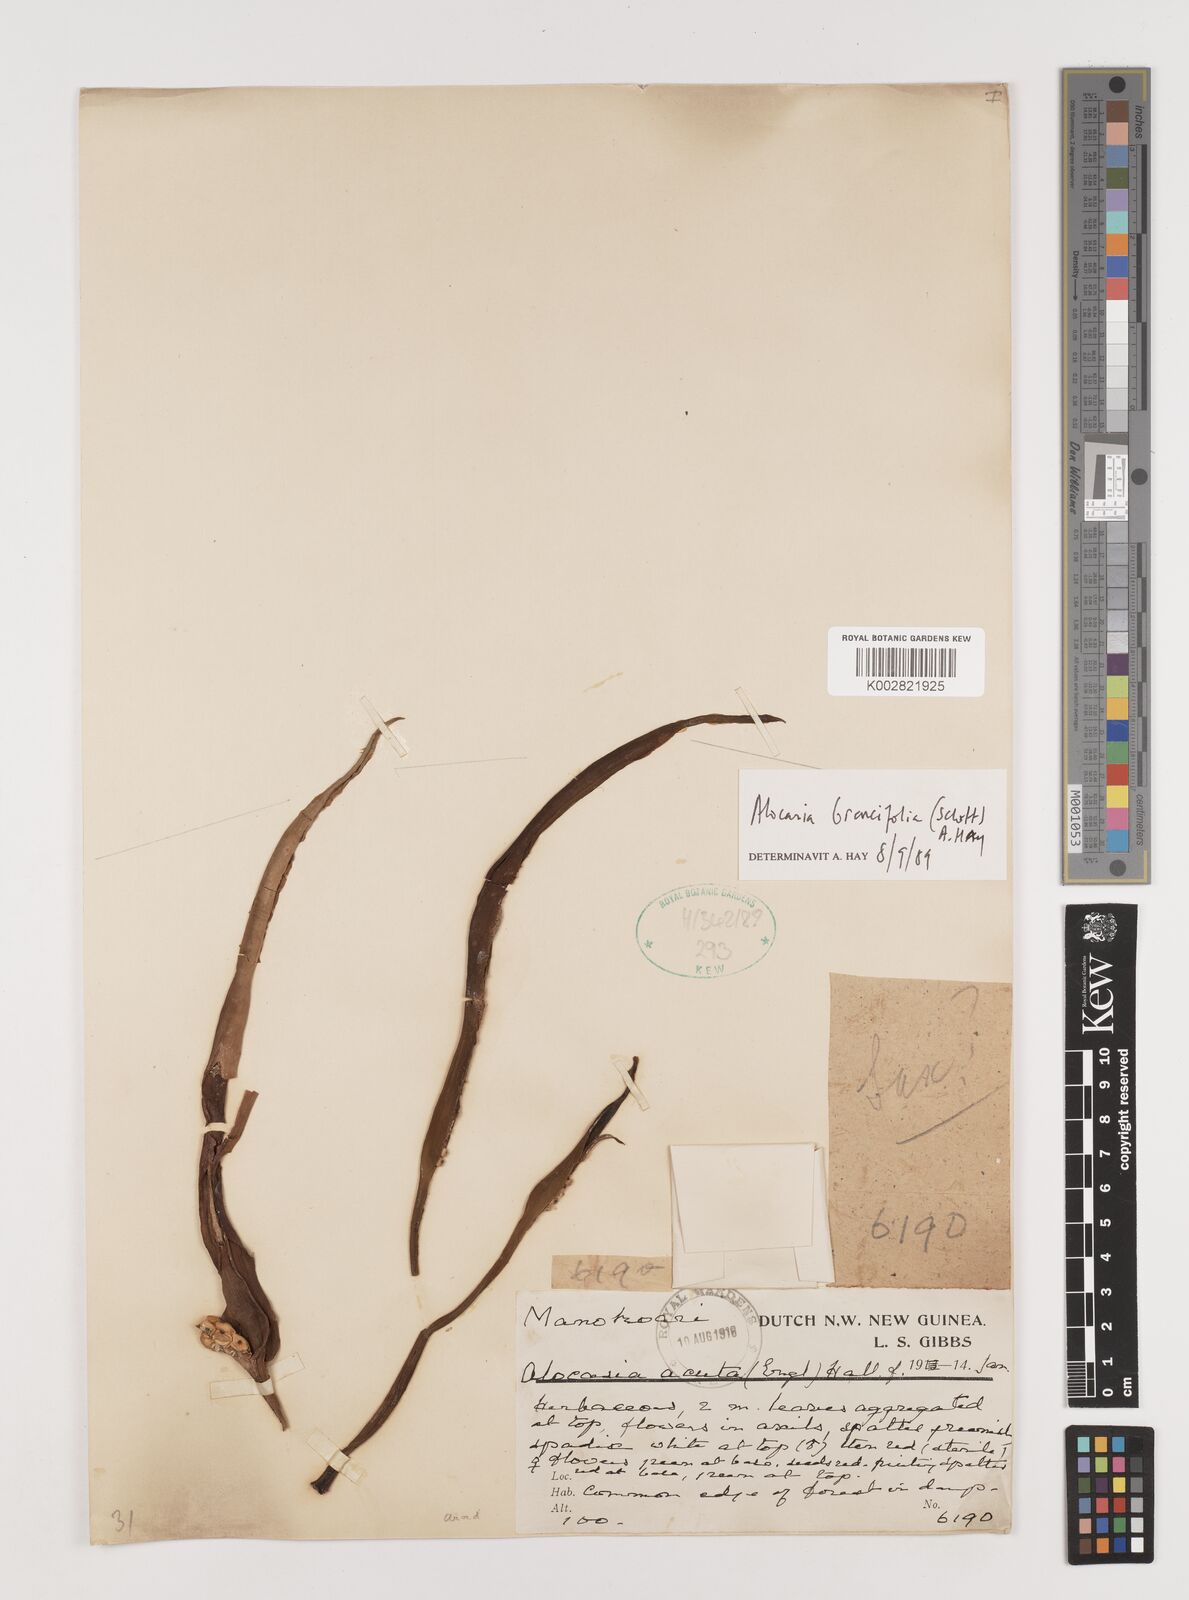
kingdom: Plantae
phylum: Tracheophyta
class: Liliopsida
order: Alismatales
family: Araceae
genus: Alocasia
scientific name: Alocasia brancifolia
